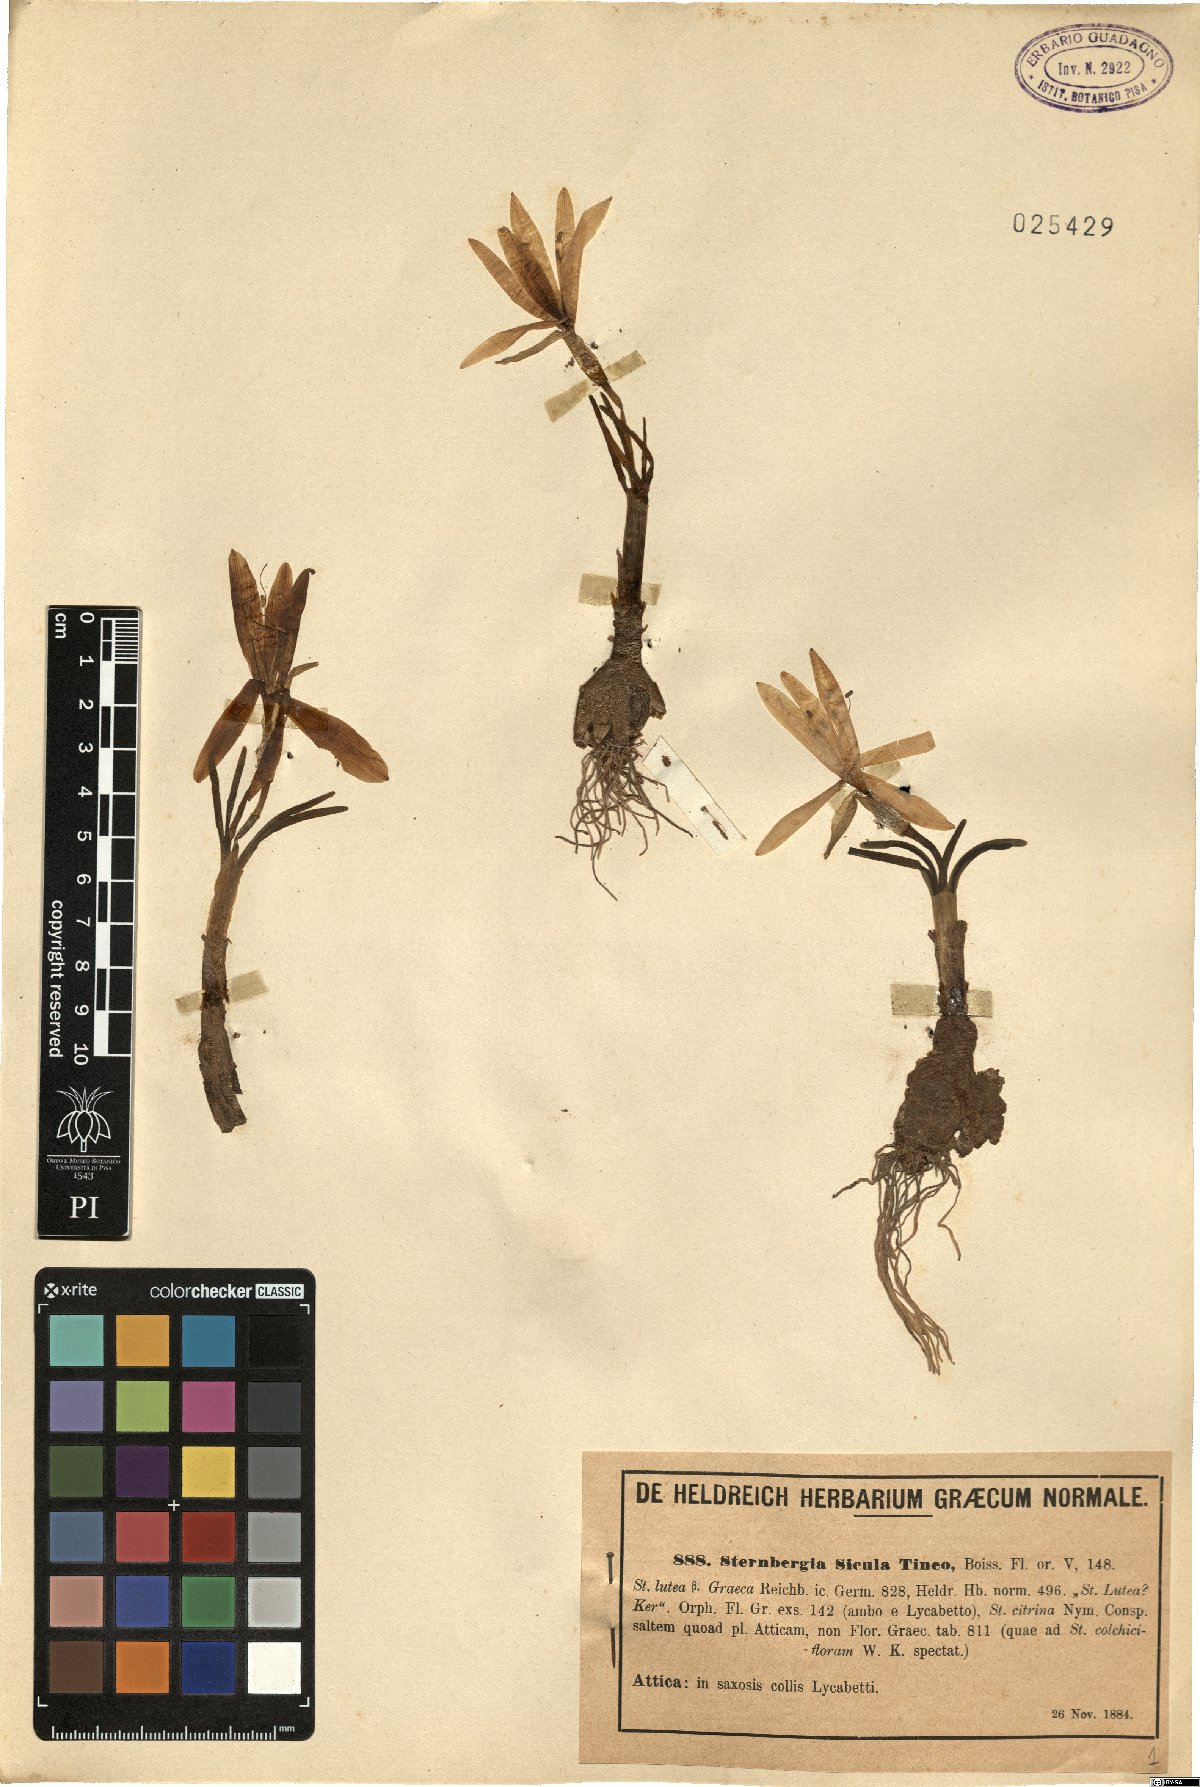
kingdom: Plantae
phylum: Tracheophyta
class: Liliopsida
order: Asparagales
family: Amaryllidaceae
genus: Sternbergia
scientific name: Sternbergia lutea
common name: Winter daffodil
